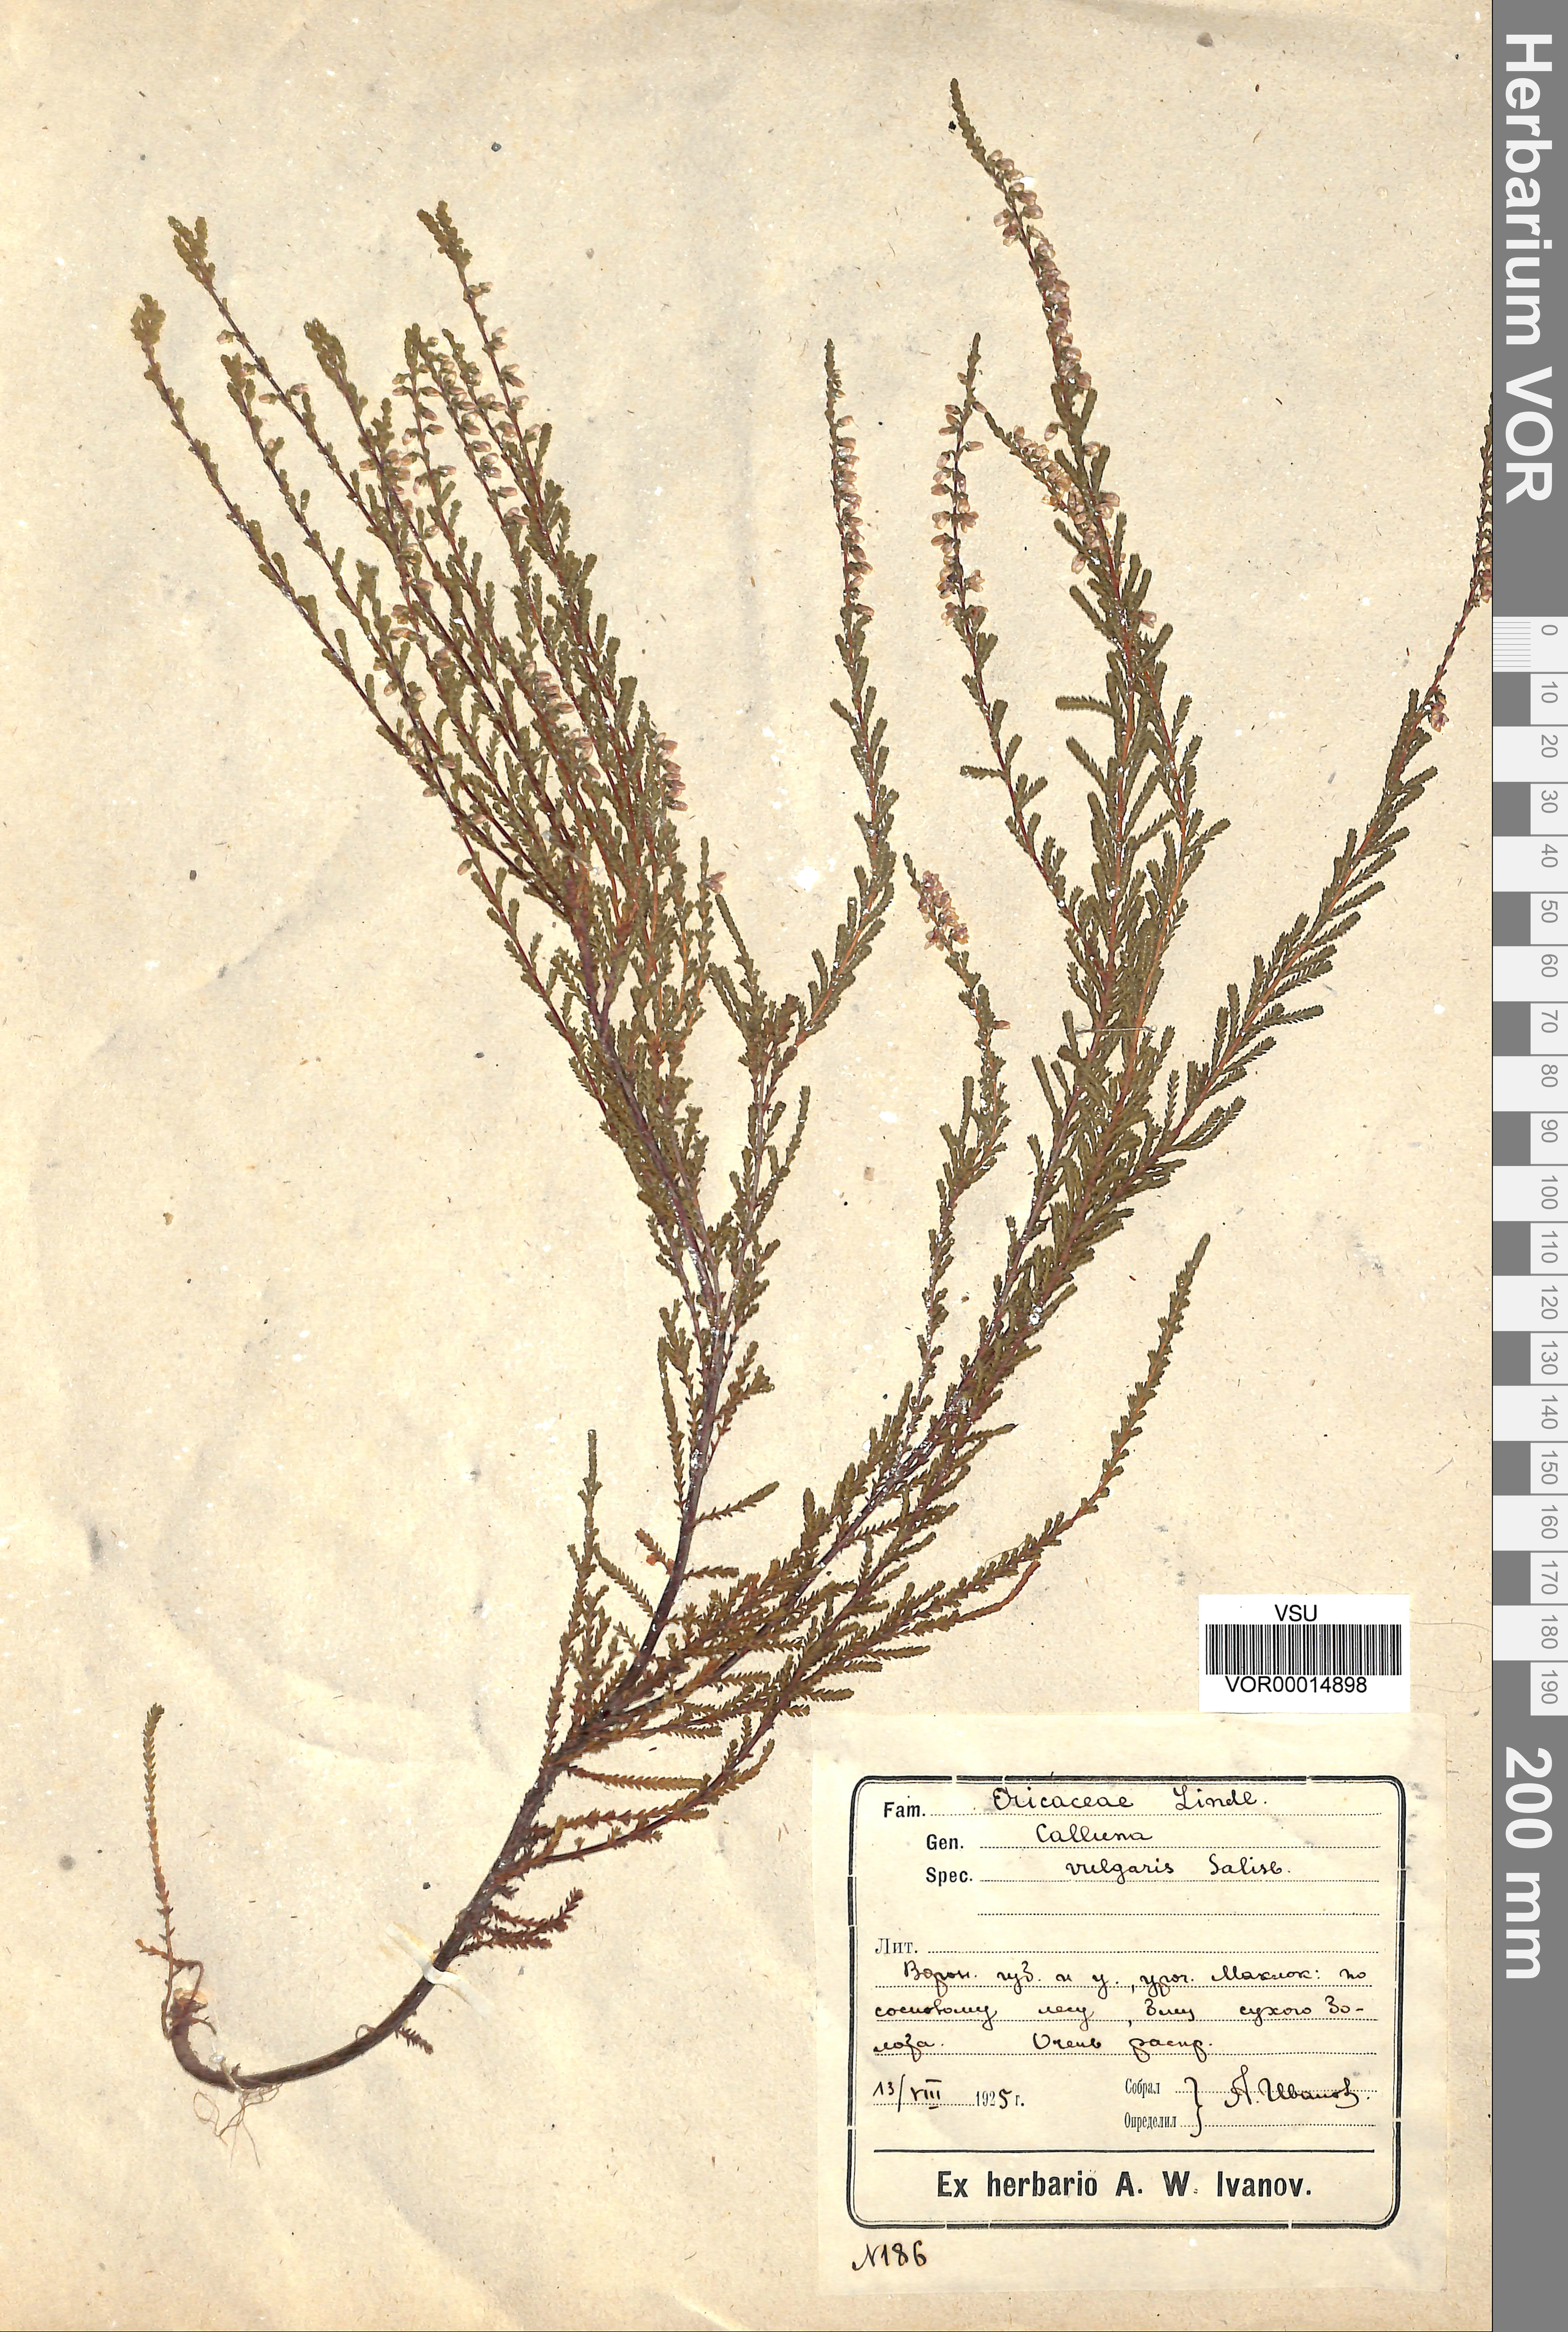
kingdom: Plantae
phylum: Tracheophyta
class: Magnoliopsida
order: Ericales
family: Ericaceae
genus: Calluna
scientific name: Calluna vulgaris
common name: Heather
